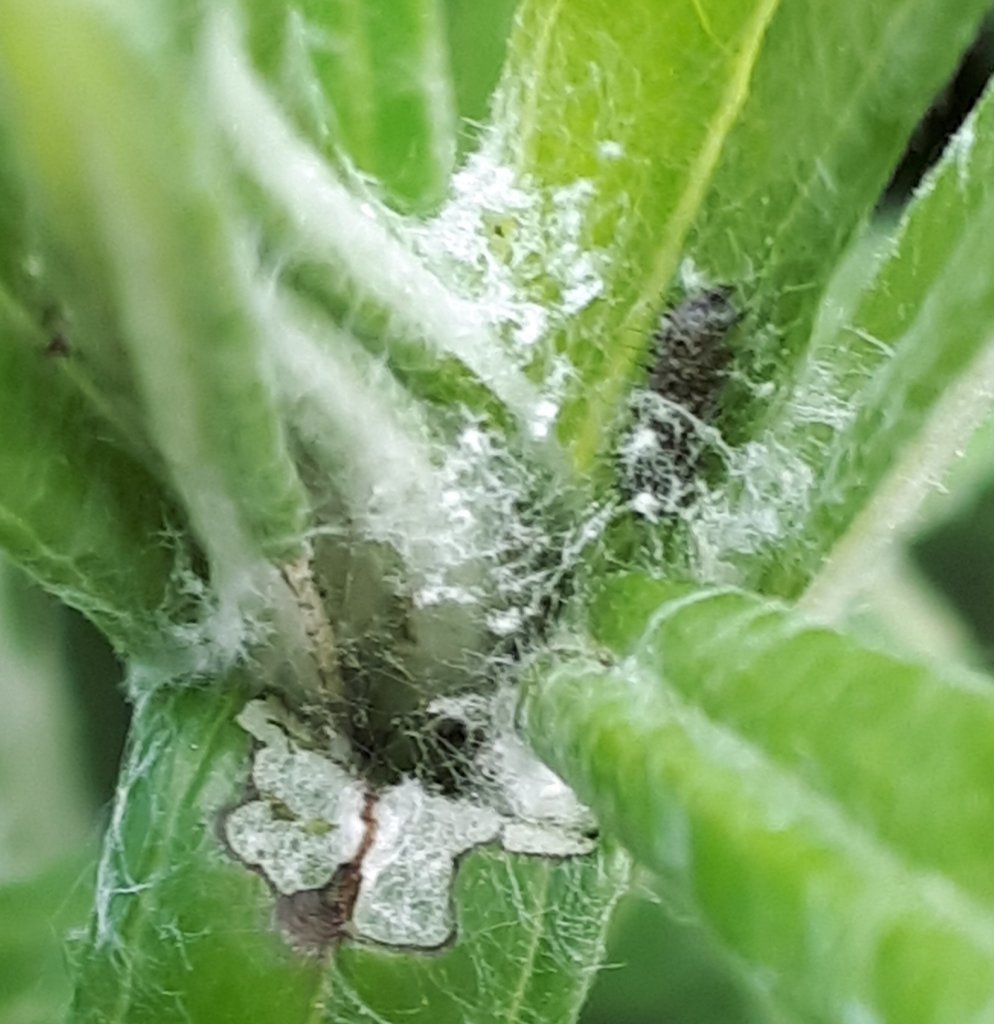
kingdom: Animalia
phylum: Arthropoda
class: Insecta
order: Lepidoptera
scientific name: Lepidoptera
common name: Butterflies
